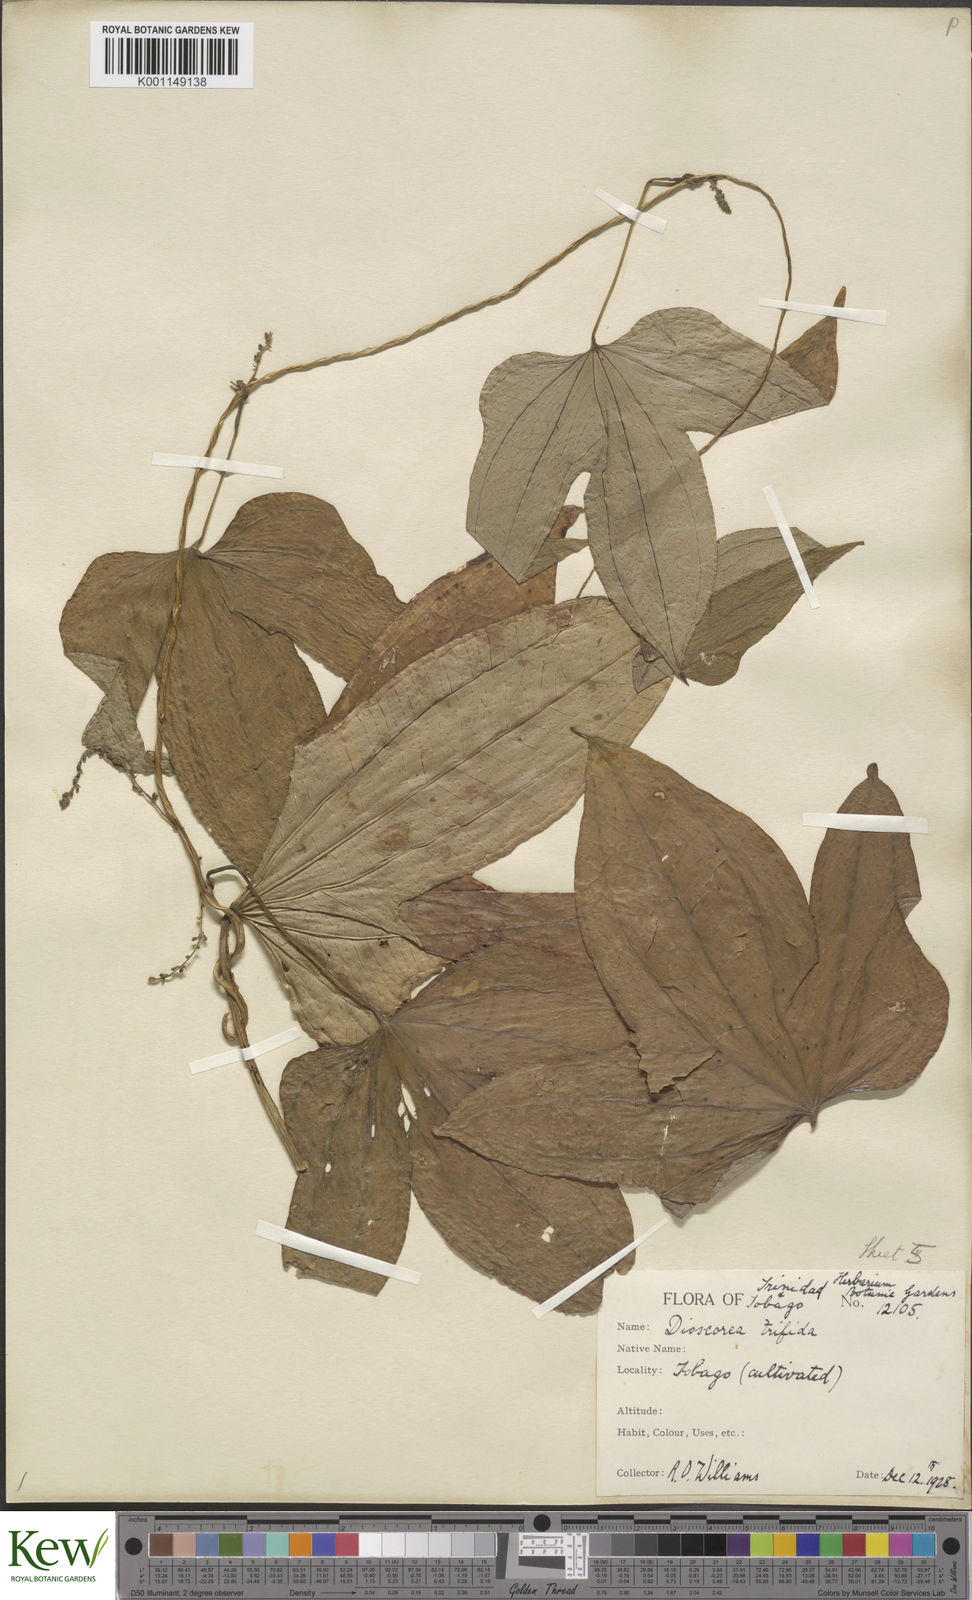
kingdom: Plantae
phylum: Tracheophyta
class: Liliopsida
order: Dioscoreales
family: Dioscoreaceae
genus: Dioscorea
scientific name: Dioscorea trifida
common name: Cush-cush
